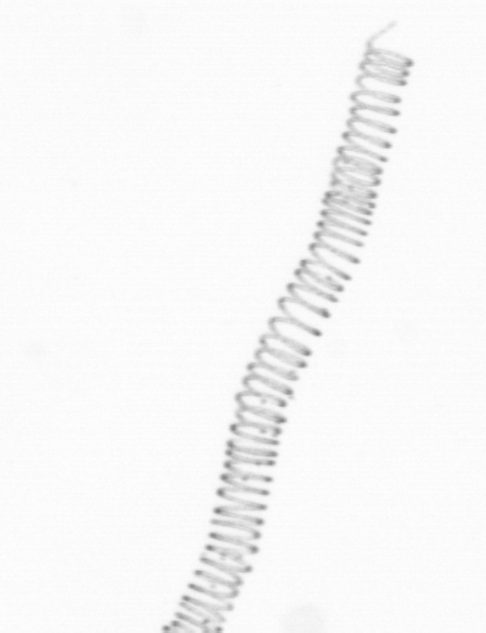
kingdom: Chromista
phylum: Ochrophyta
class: Bacillariophyceae
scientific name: Bacillariophyceae
